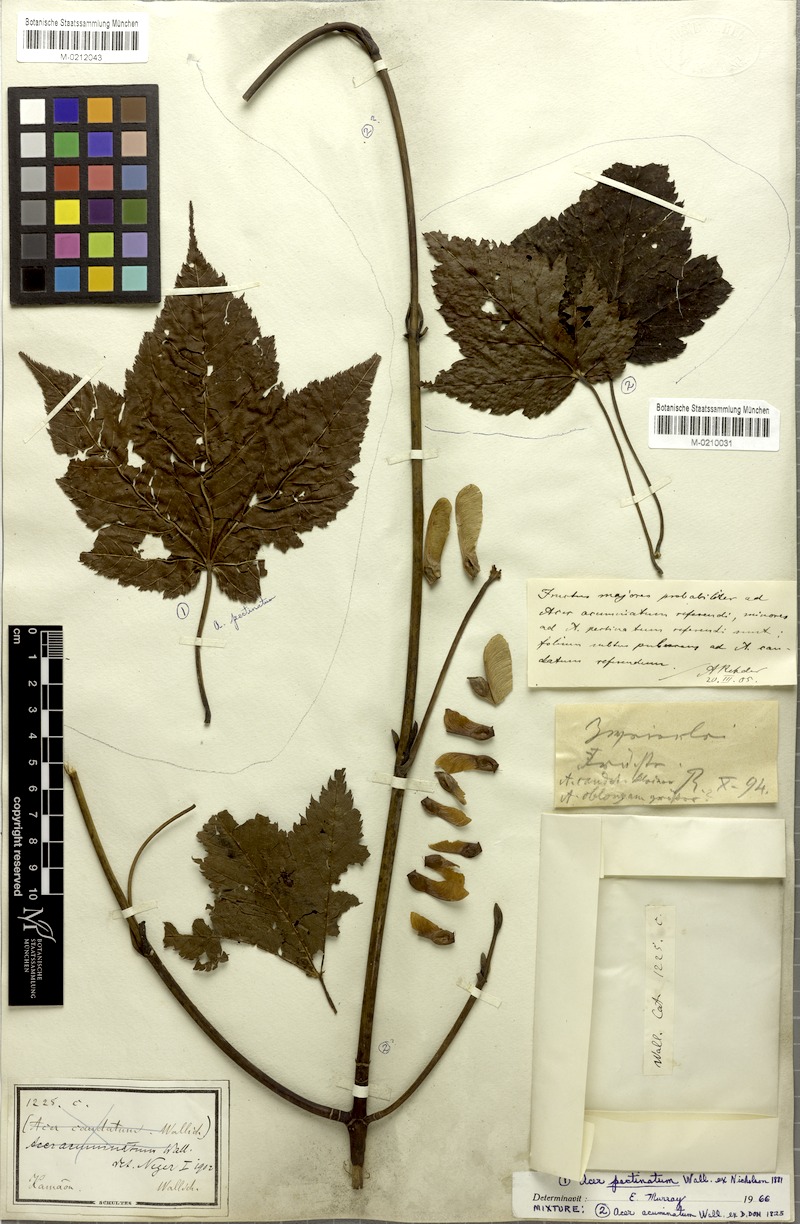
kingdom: Plantae
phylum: Tracheophyta
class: Magnoliopsida
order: Sapindales
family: Sapindaceae
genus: Acer
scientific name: Acer caudatum
